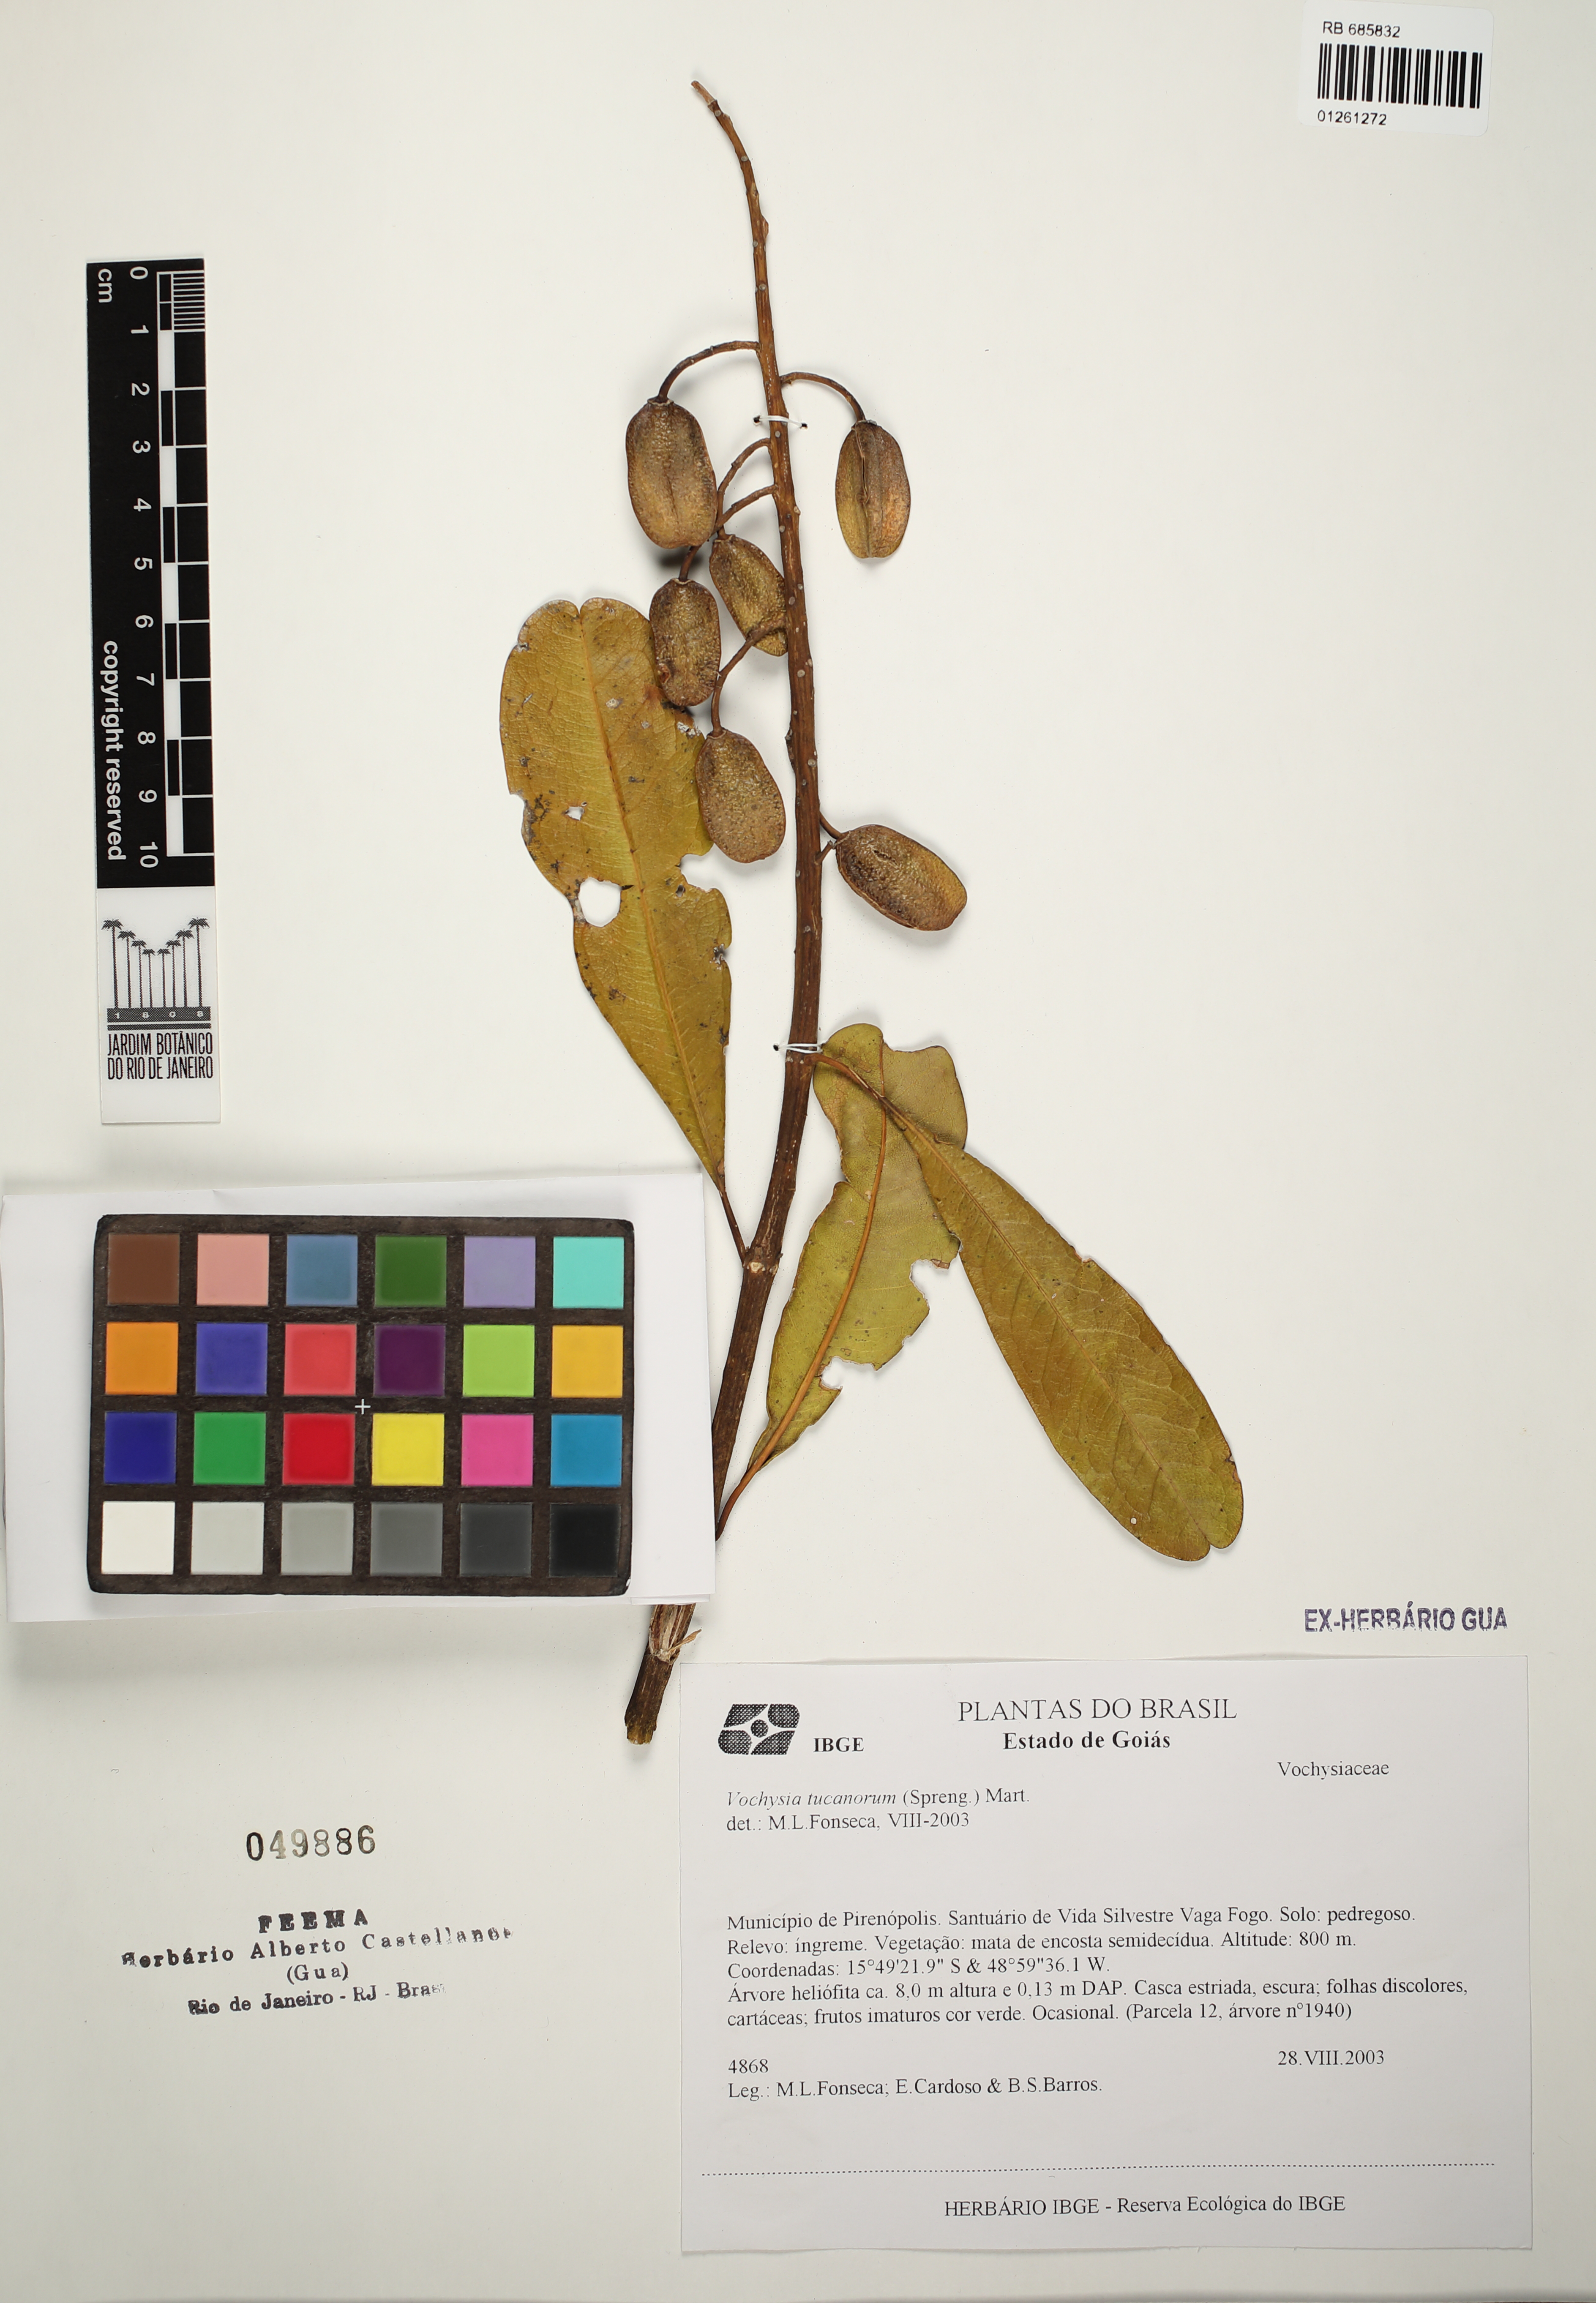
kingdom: Plantae
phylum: Tracheophyta
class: Magnoliopsida
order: Myrtales
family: Vochysiaceae
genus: Vochysia
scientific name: Vochysia tucanorum
